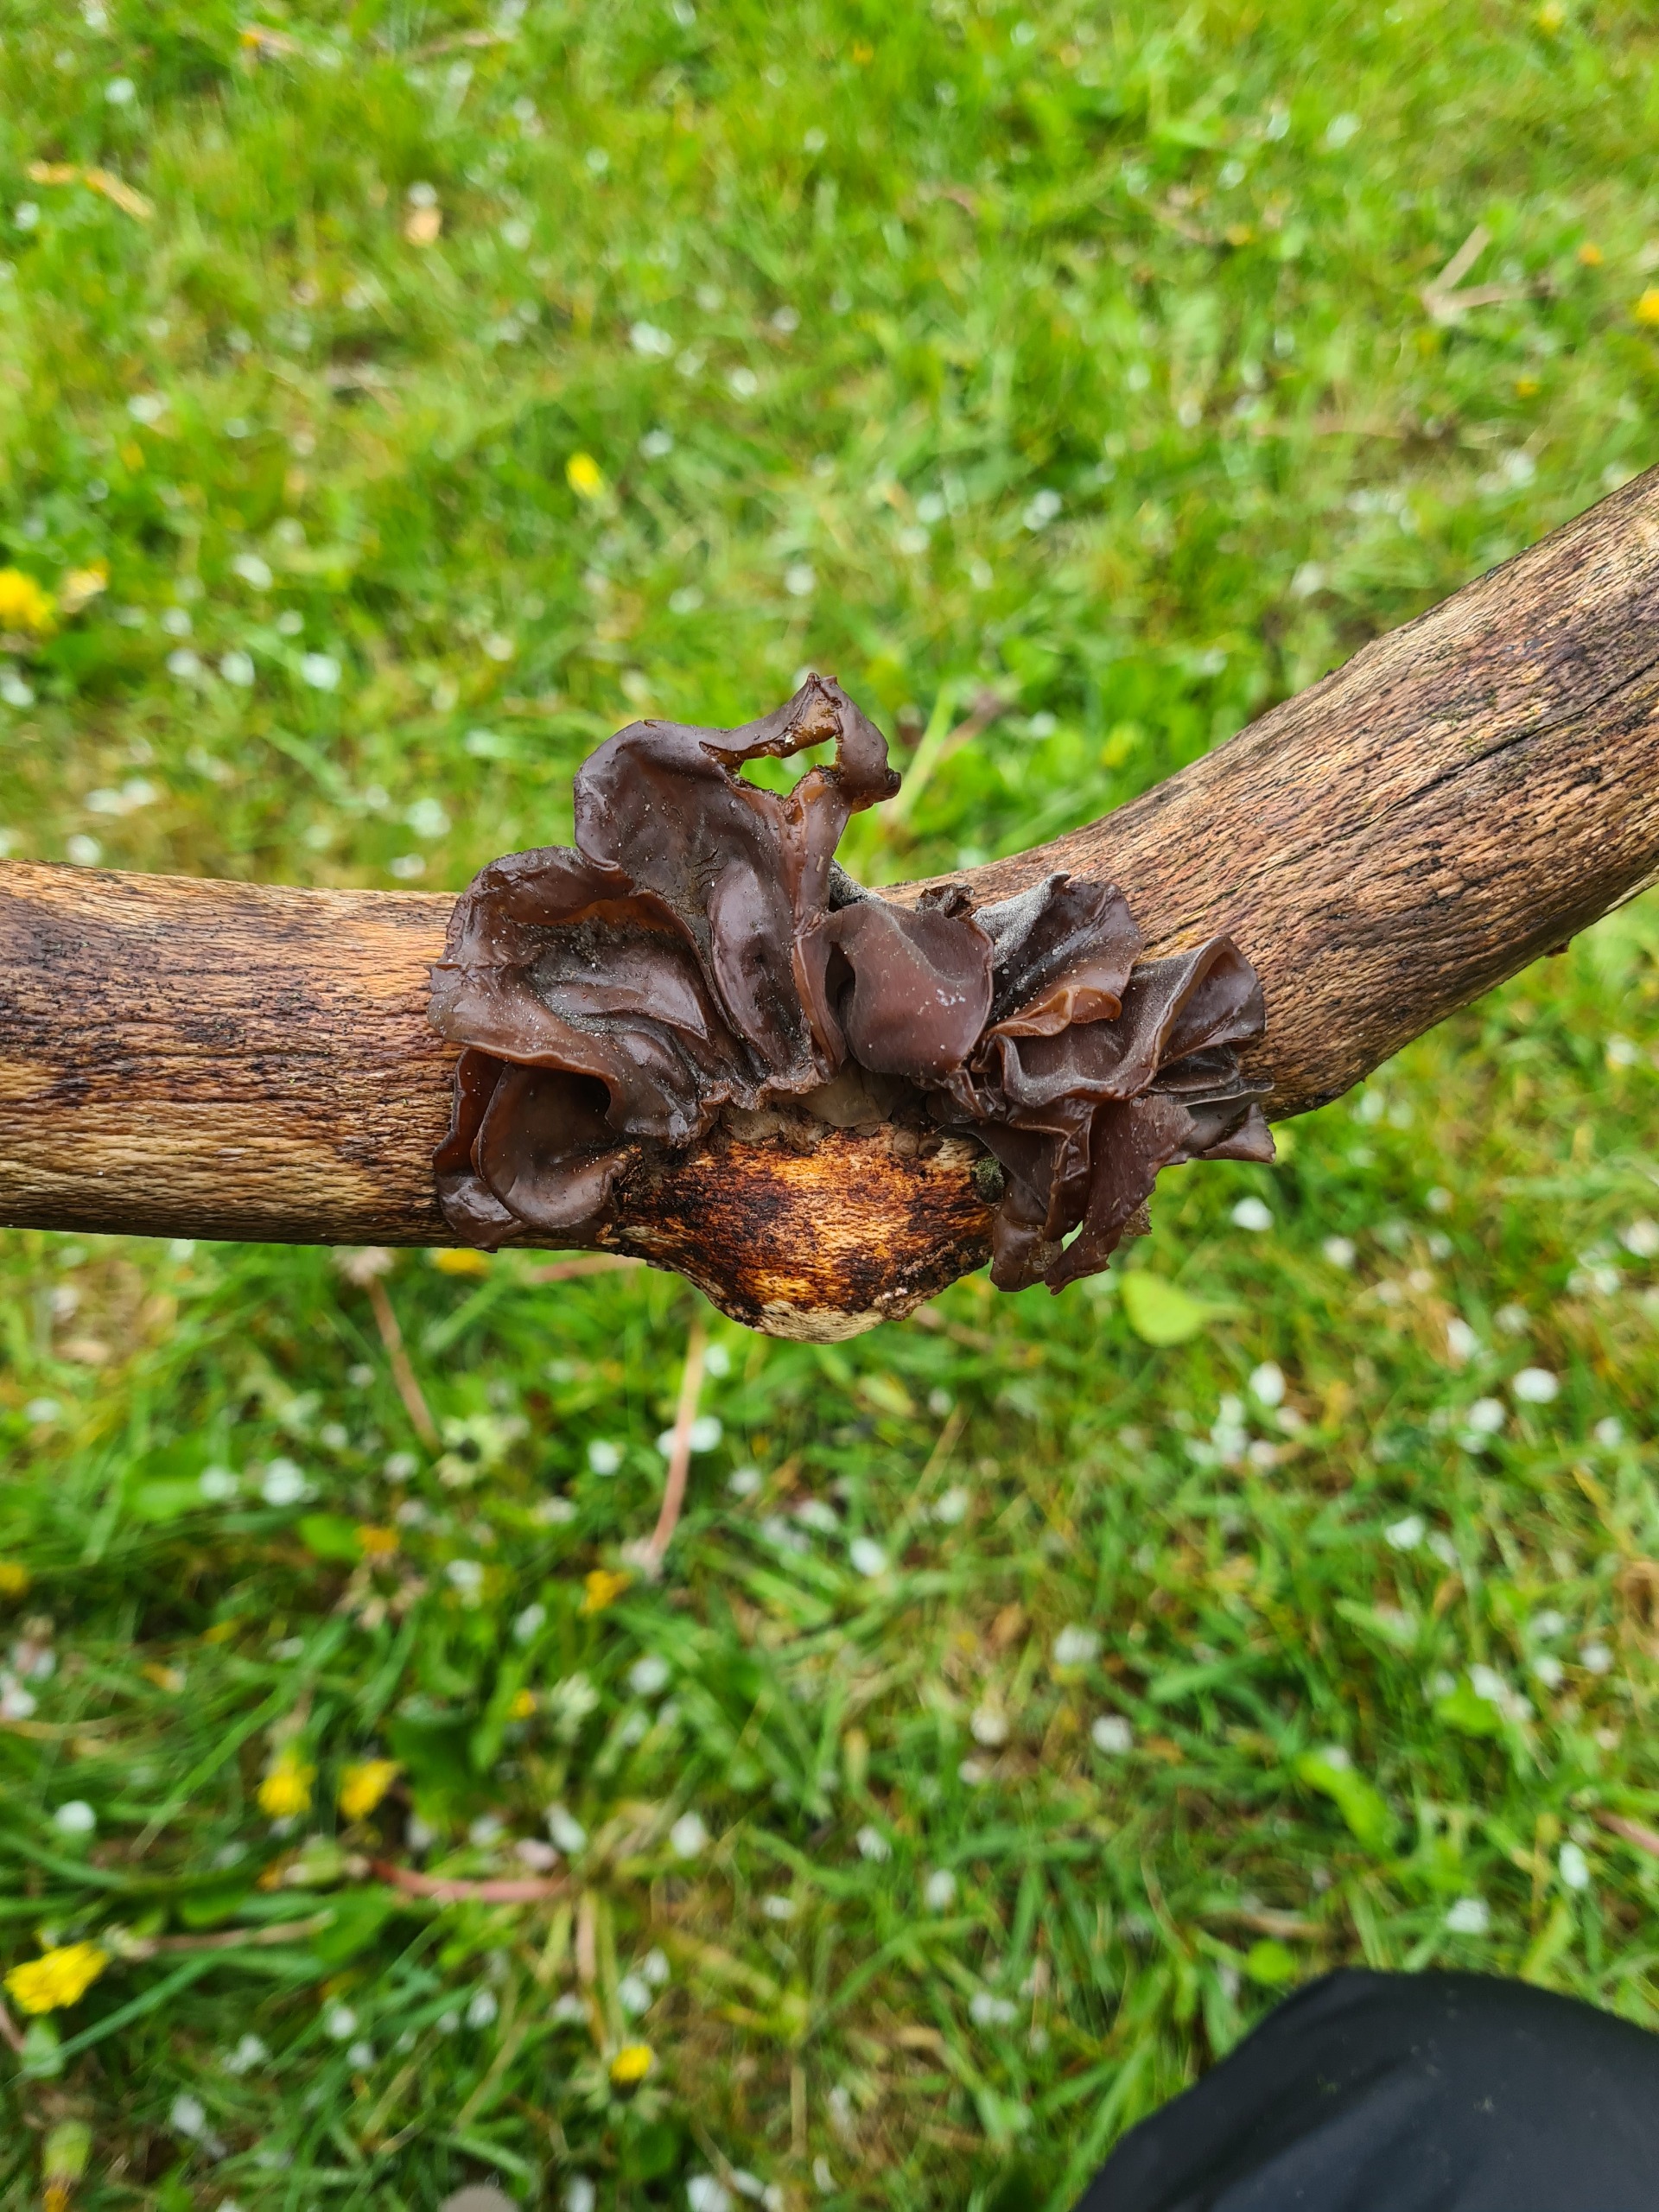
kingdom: Fungi
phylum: Basidiomycota
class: Agaricomycetes
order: Auriculariales
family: Auriculariaceae
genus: Auricularia
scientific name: Auricularia auricula-judae
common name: Almindelig judasøre
